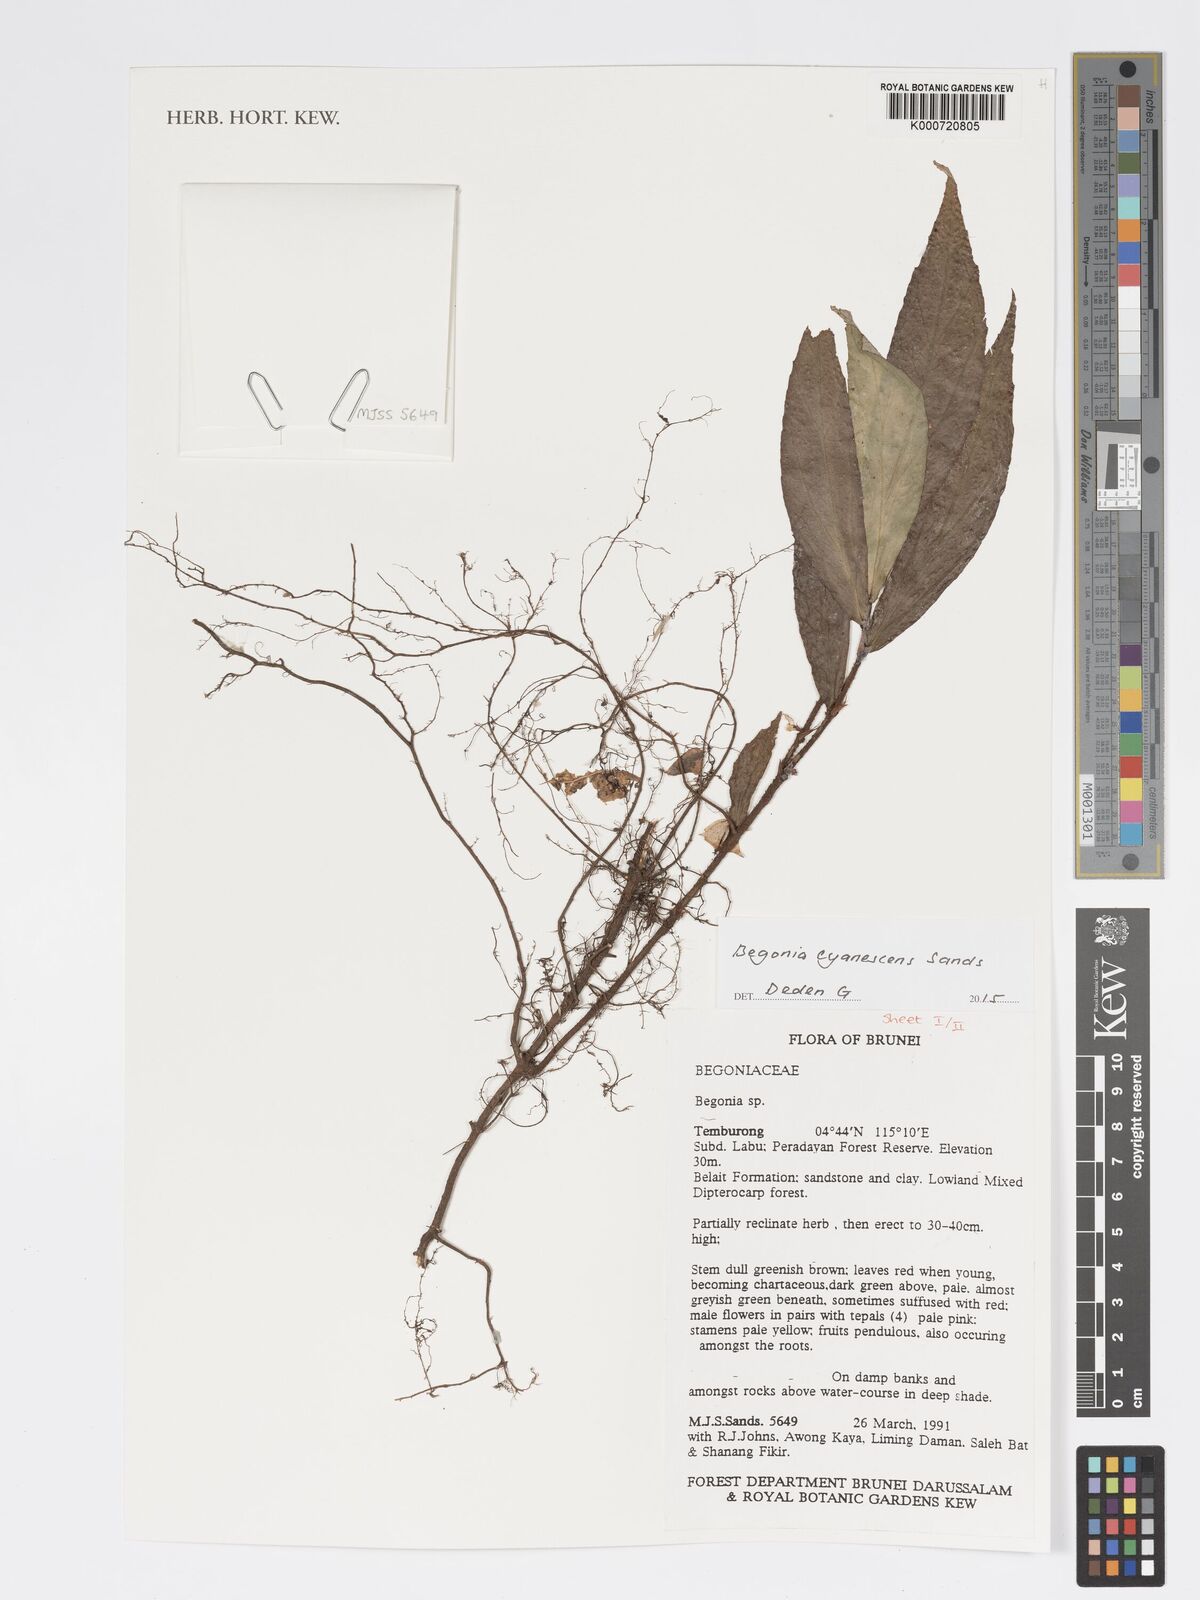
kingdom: Plantae
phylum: Tracheophyta
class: Magnoliopsida
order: Cucurbitales
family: Begoniaceae
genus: Begonia
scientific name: Begonia cyanescens
